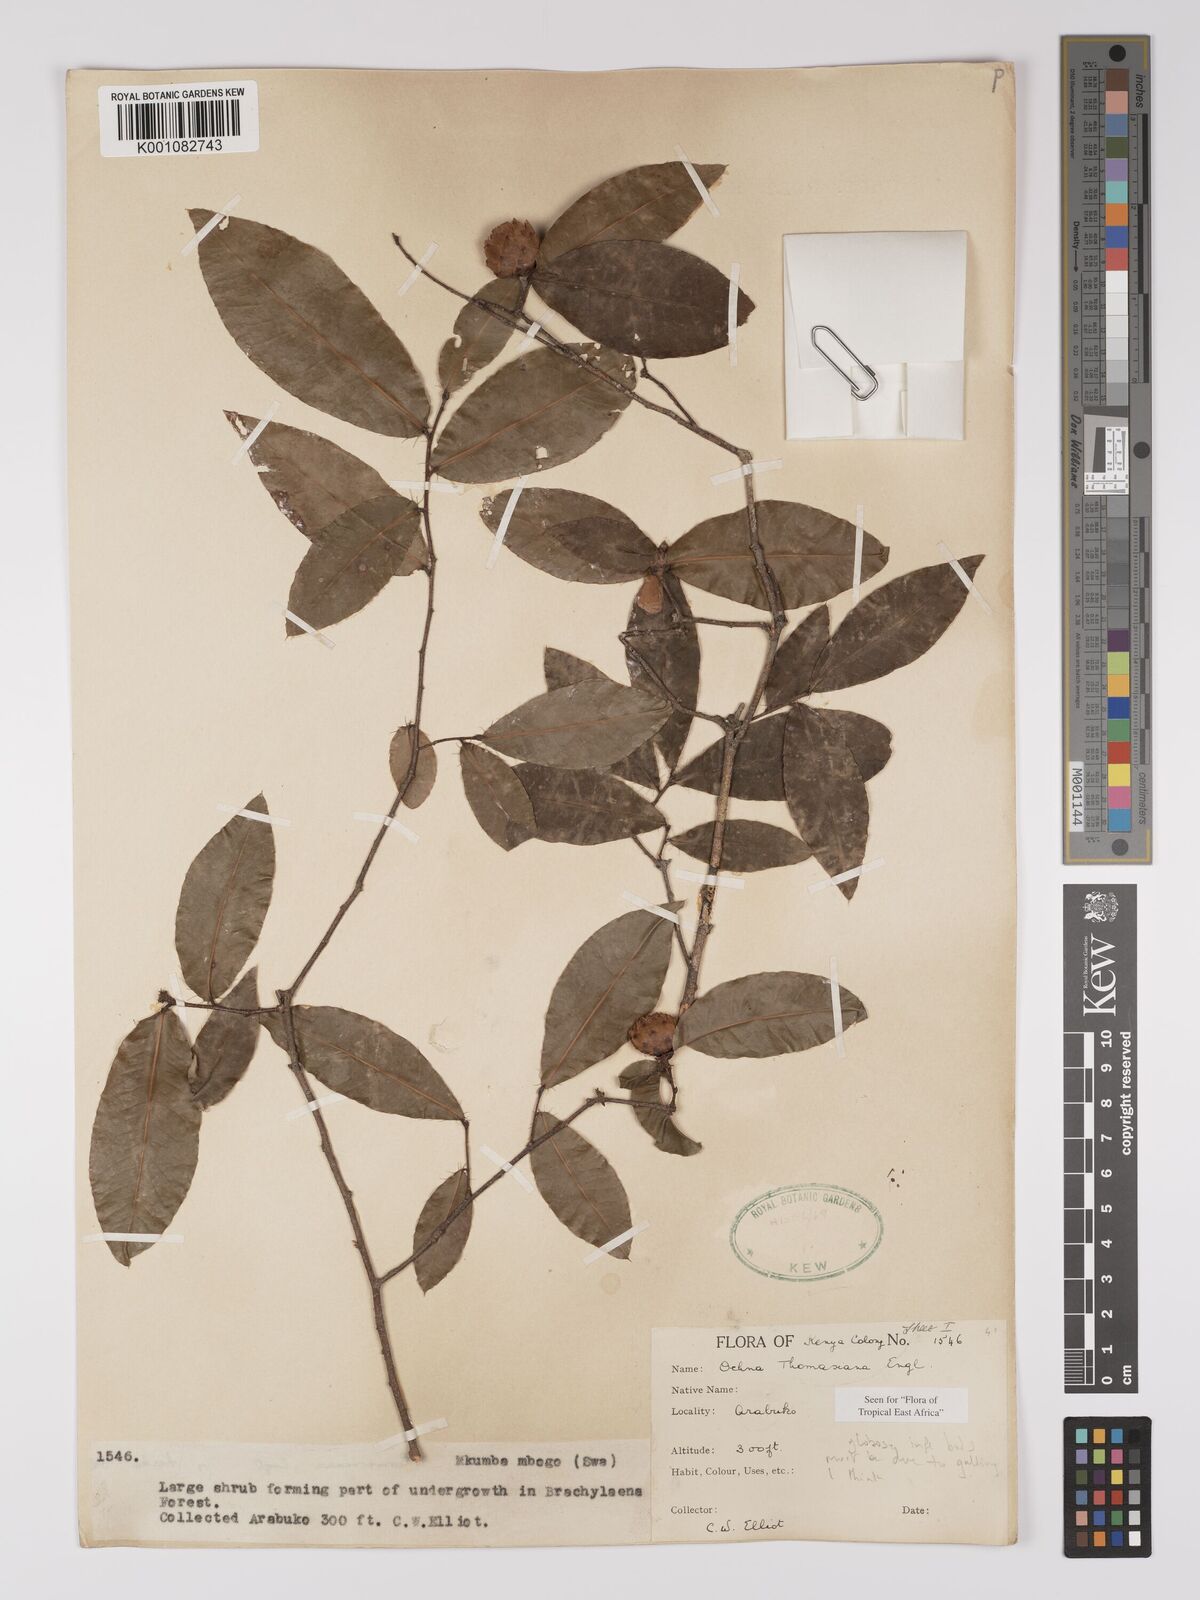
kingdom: Plantae
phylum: Tracheophyta
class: Magnoliopsida
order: Malpighiales
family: Ochnaceae
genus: Ochna
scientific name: Ochna thomasiana
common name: Thomas' bird's-eye bush
